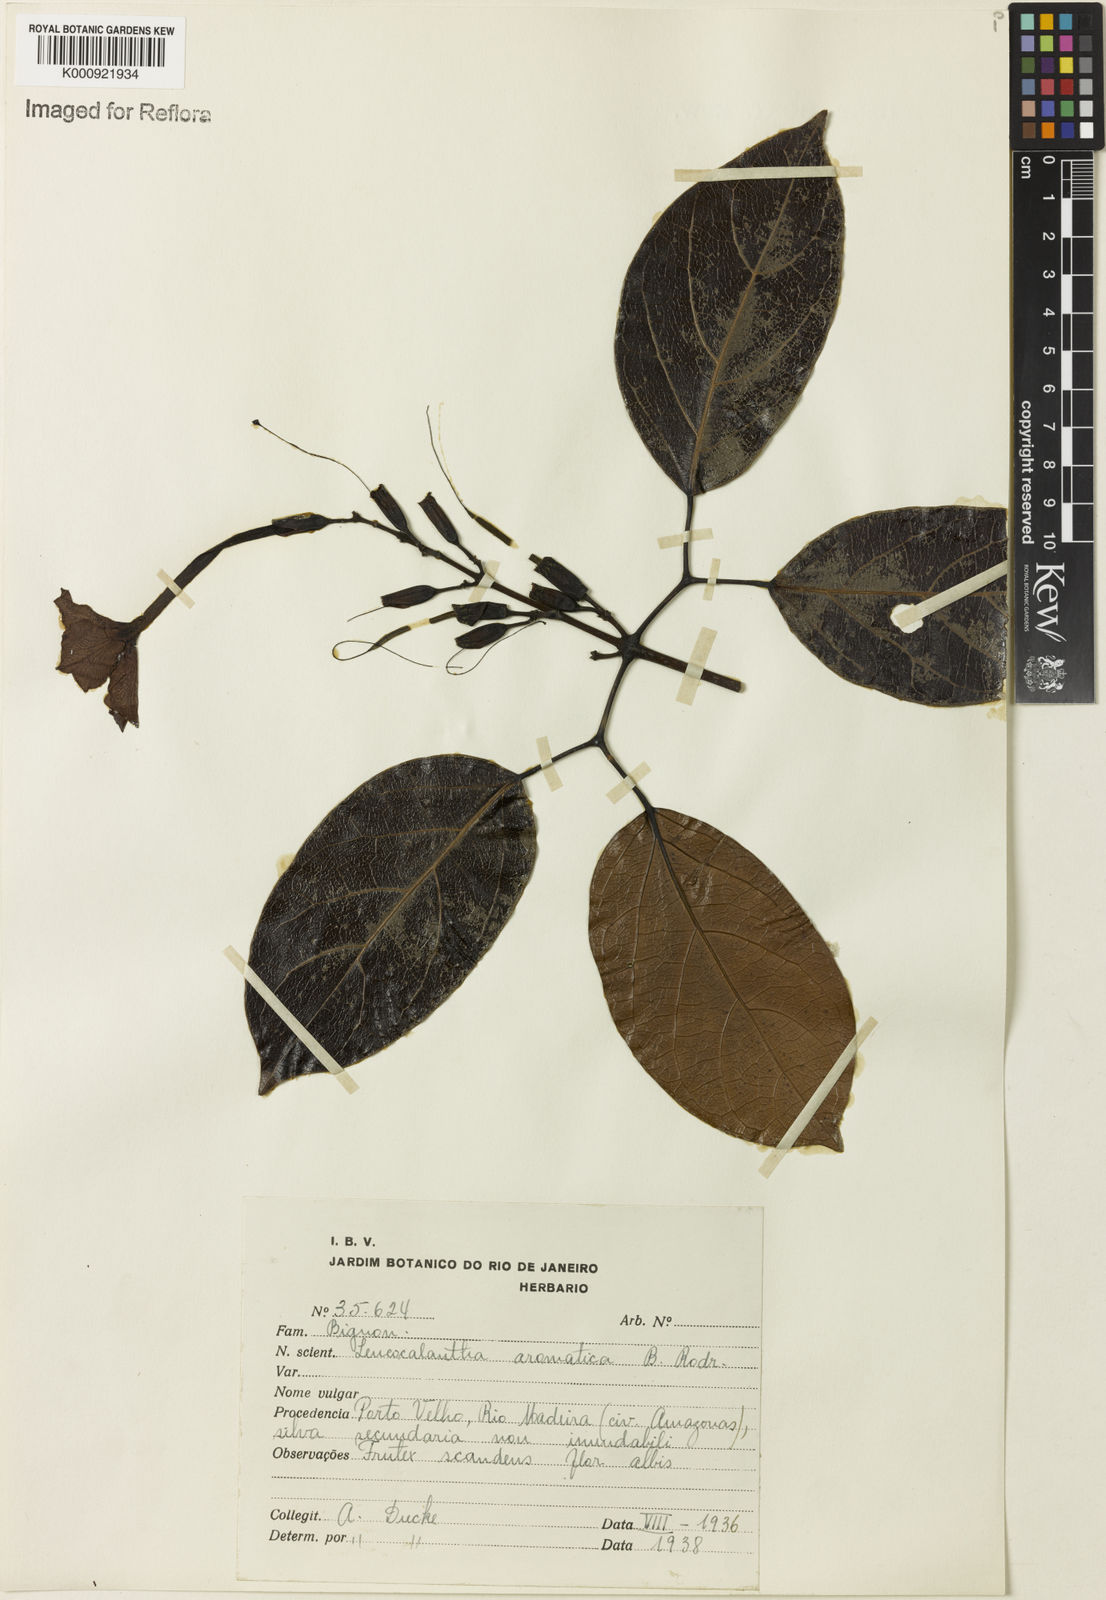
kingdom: Plantae
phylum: Tracheophyta
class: Magnoliopsida
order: Lamiales
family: Bignoniaceae
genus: Pachyptera
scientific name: Pachyptera aromatica
